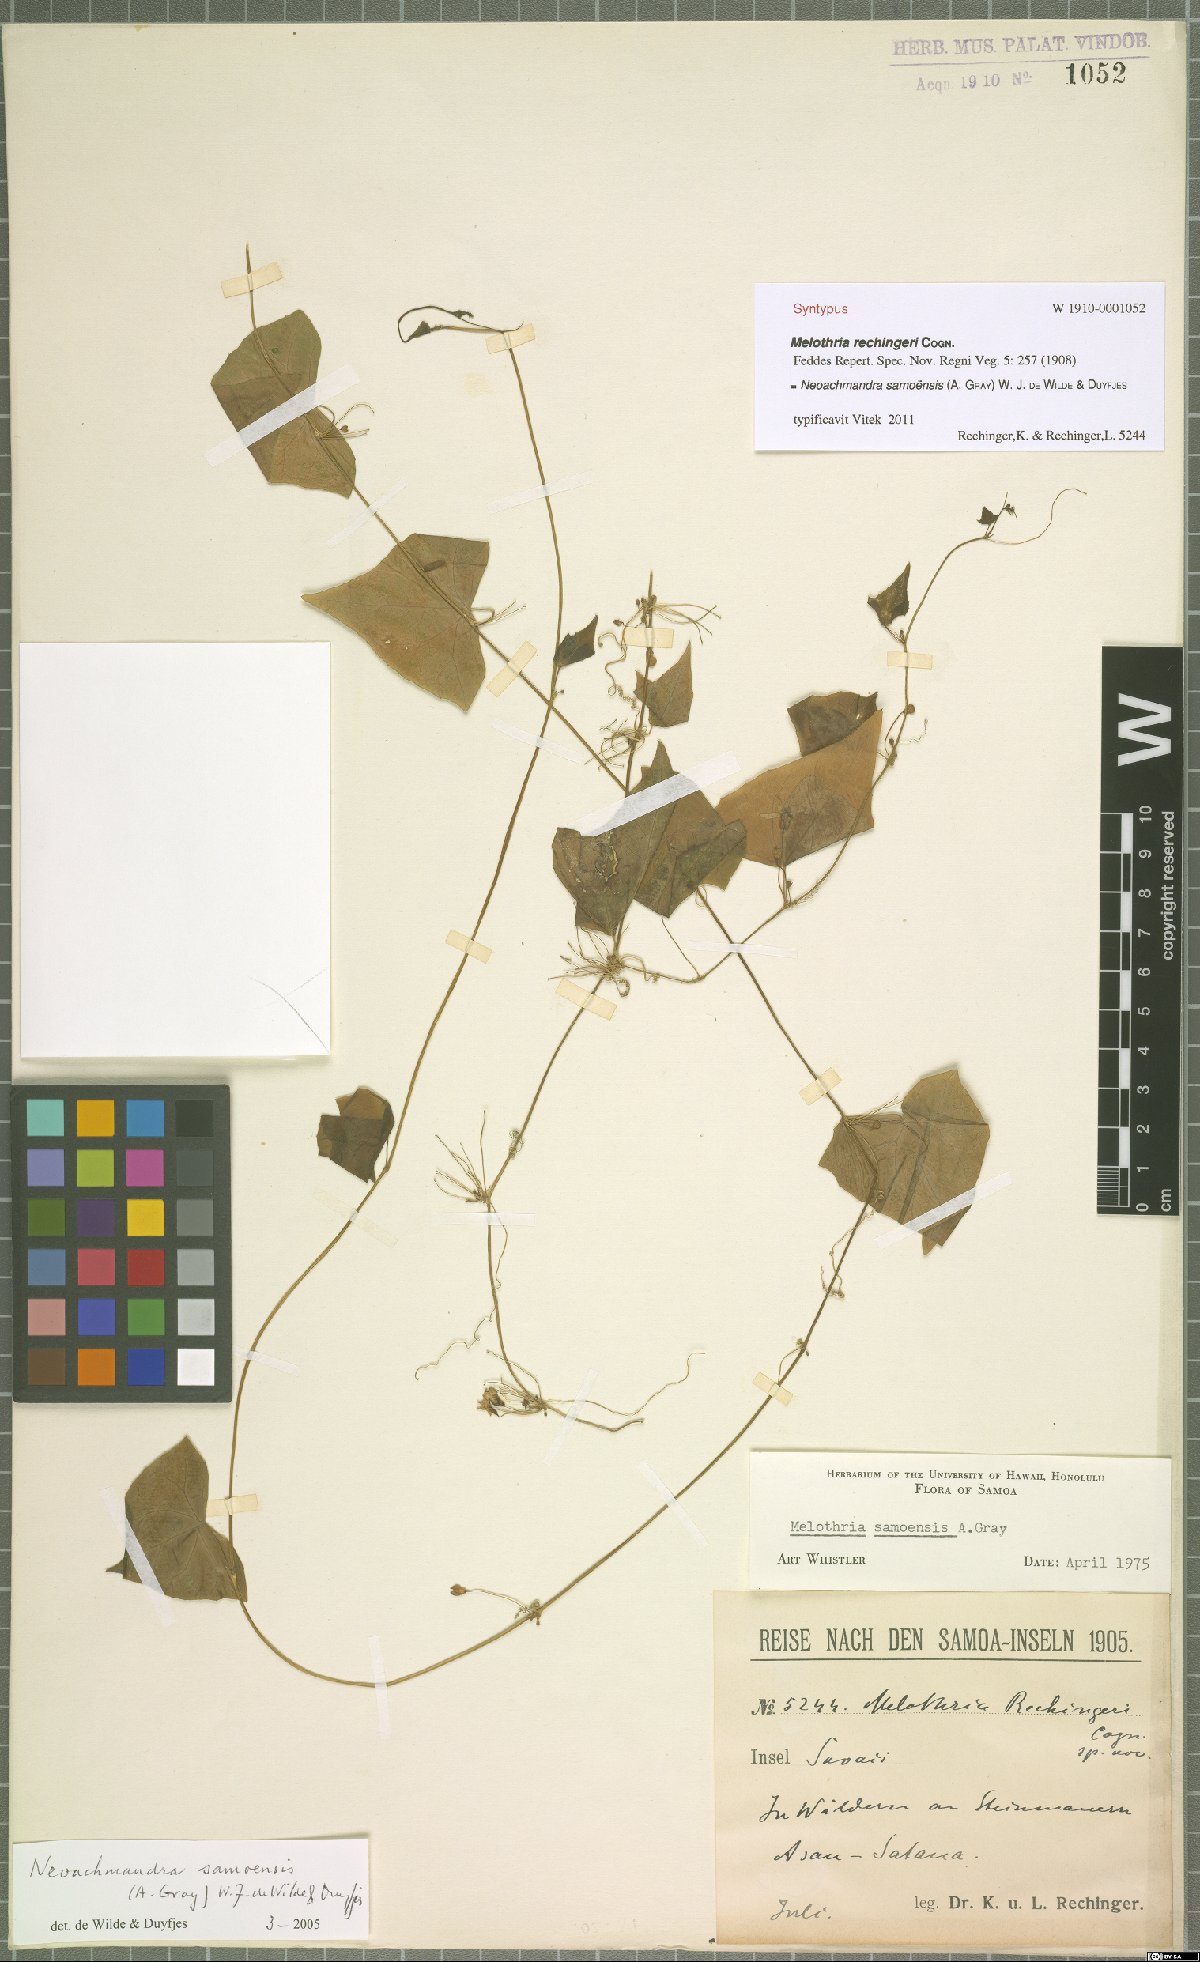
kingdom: Plantae
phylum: Tracheophyta
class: Magnoliopsida
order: Cucurbitales
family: Cucurbitaceae
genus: Zehneria
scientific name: Zehneria mucronata
